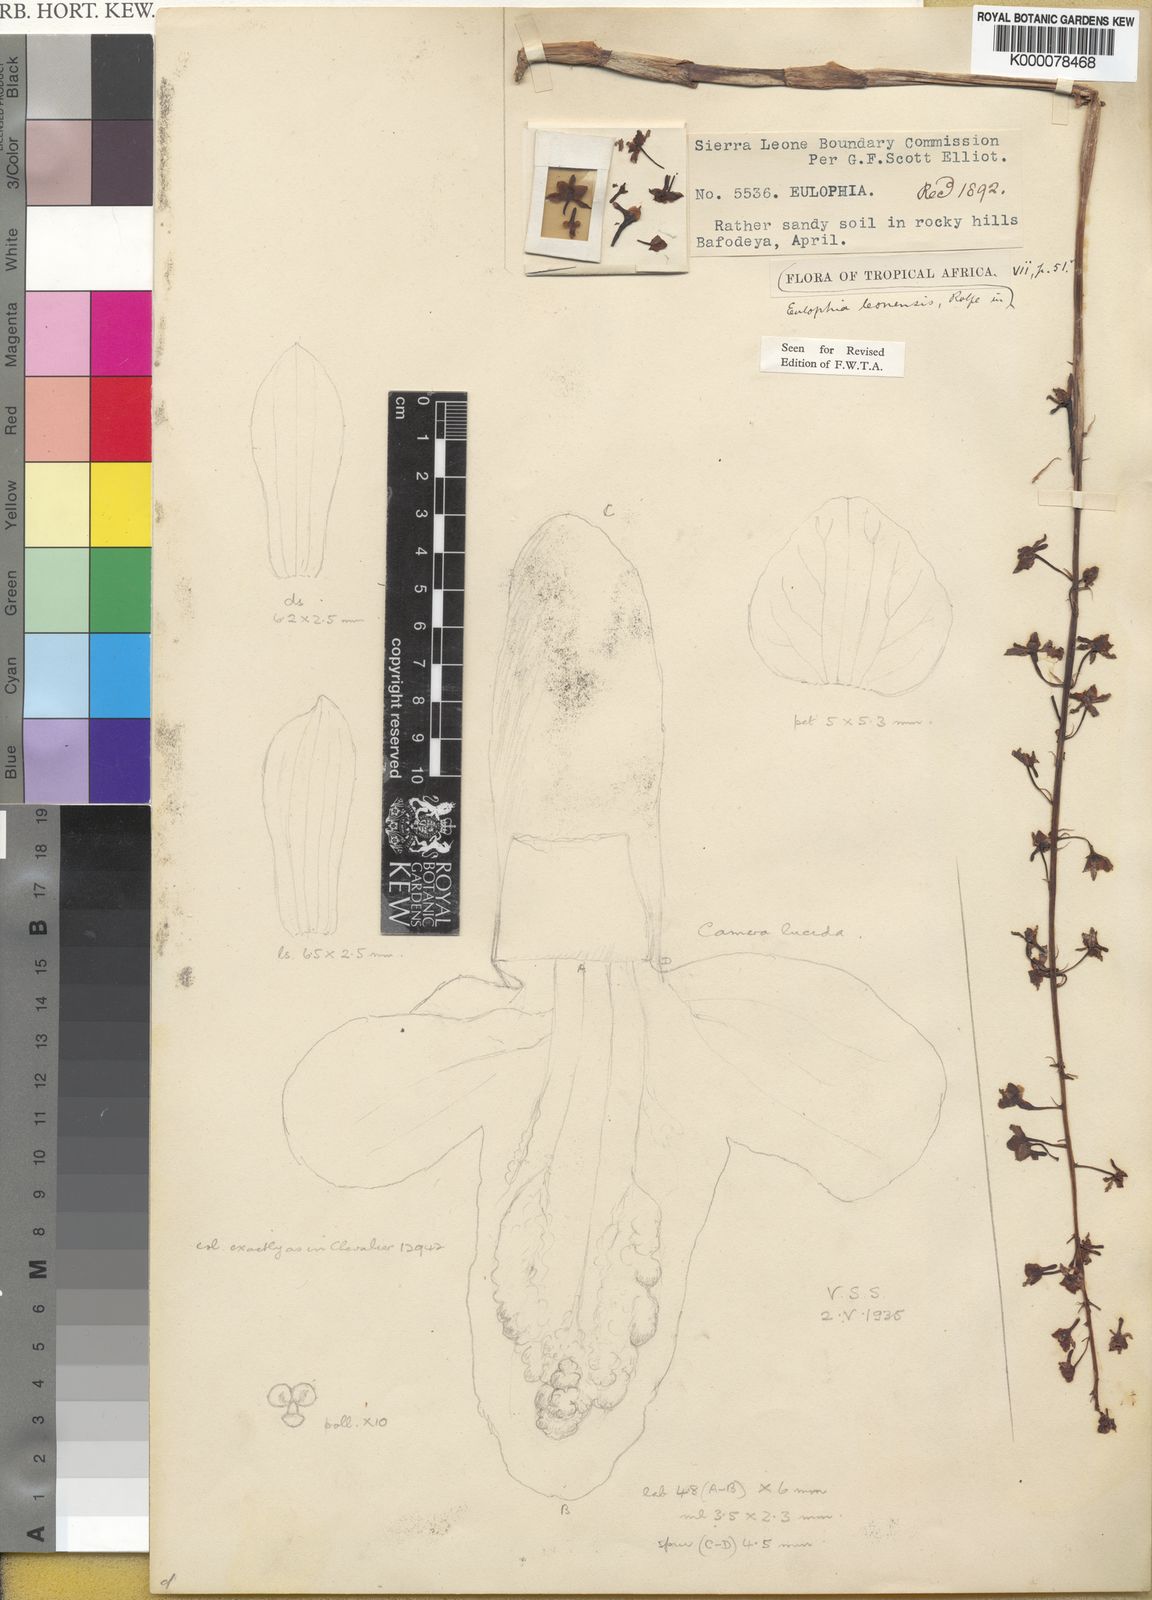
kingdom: Plantae
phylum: Tracheophyta
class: Liliopsida
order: Asparagales
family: Orchidaceae
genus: Eulophia
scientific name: Eulophia leonensis
